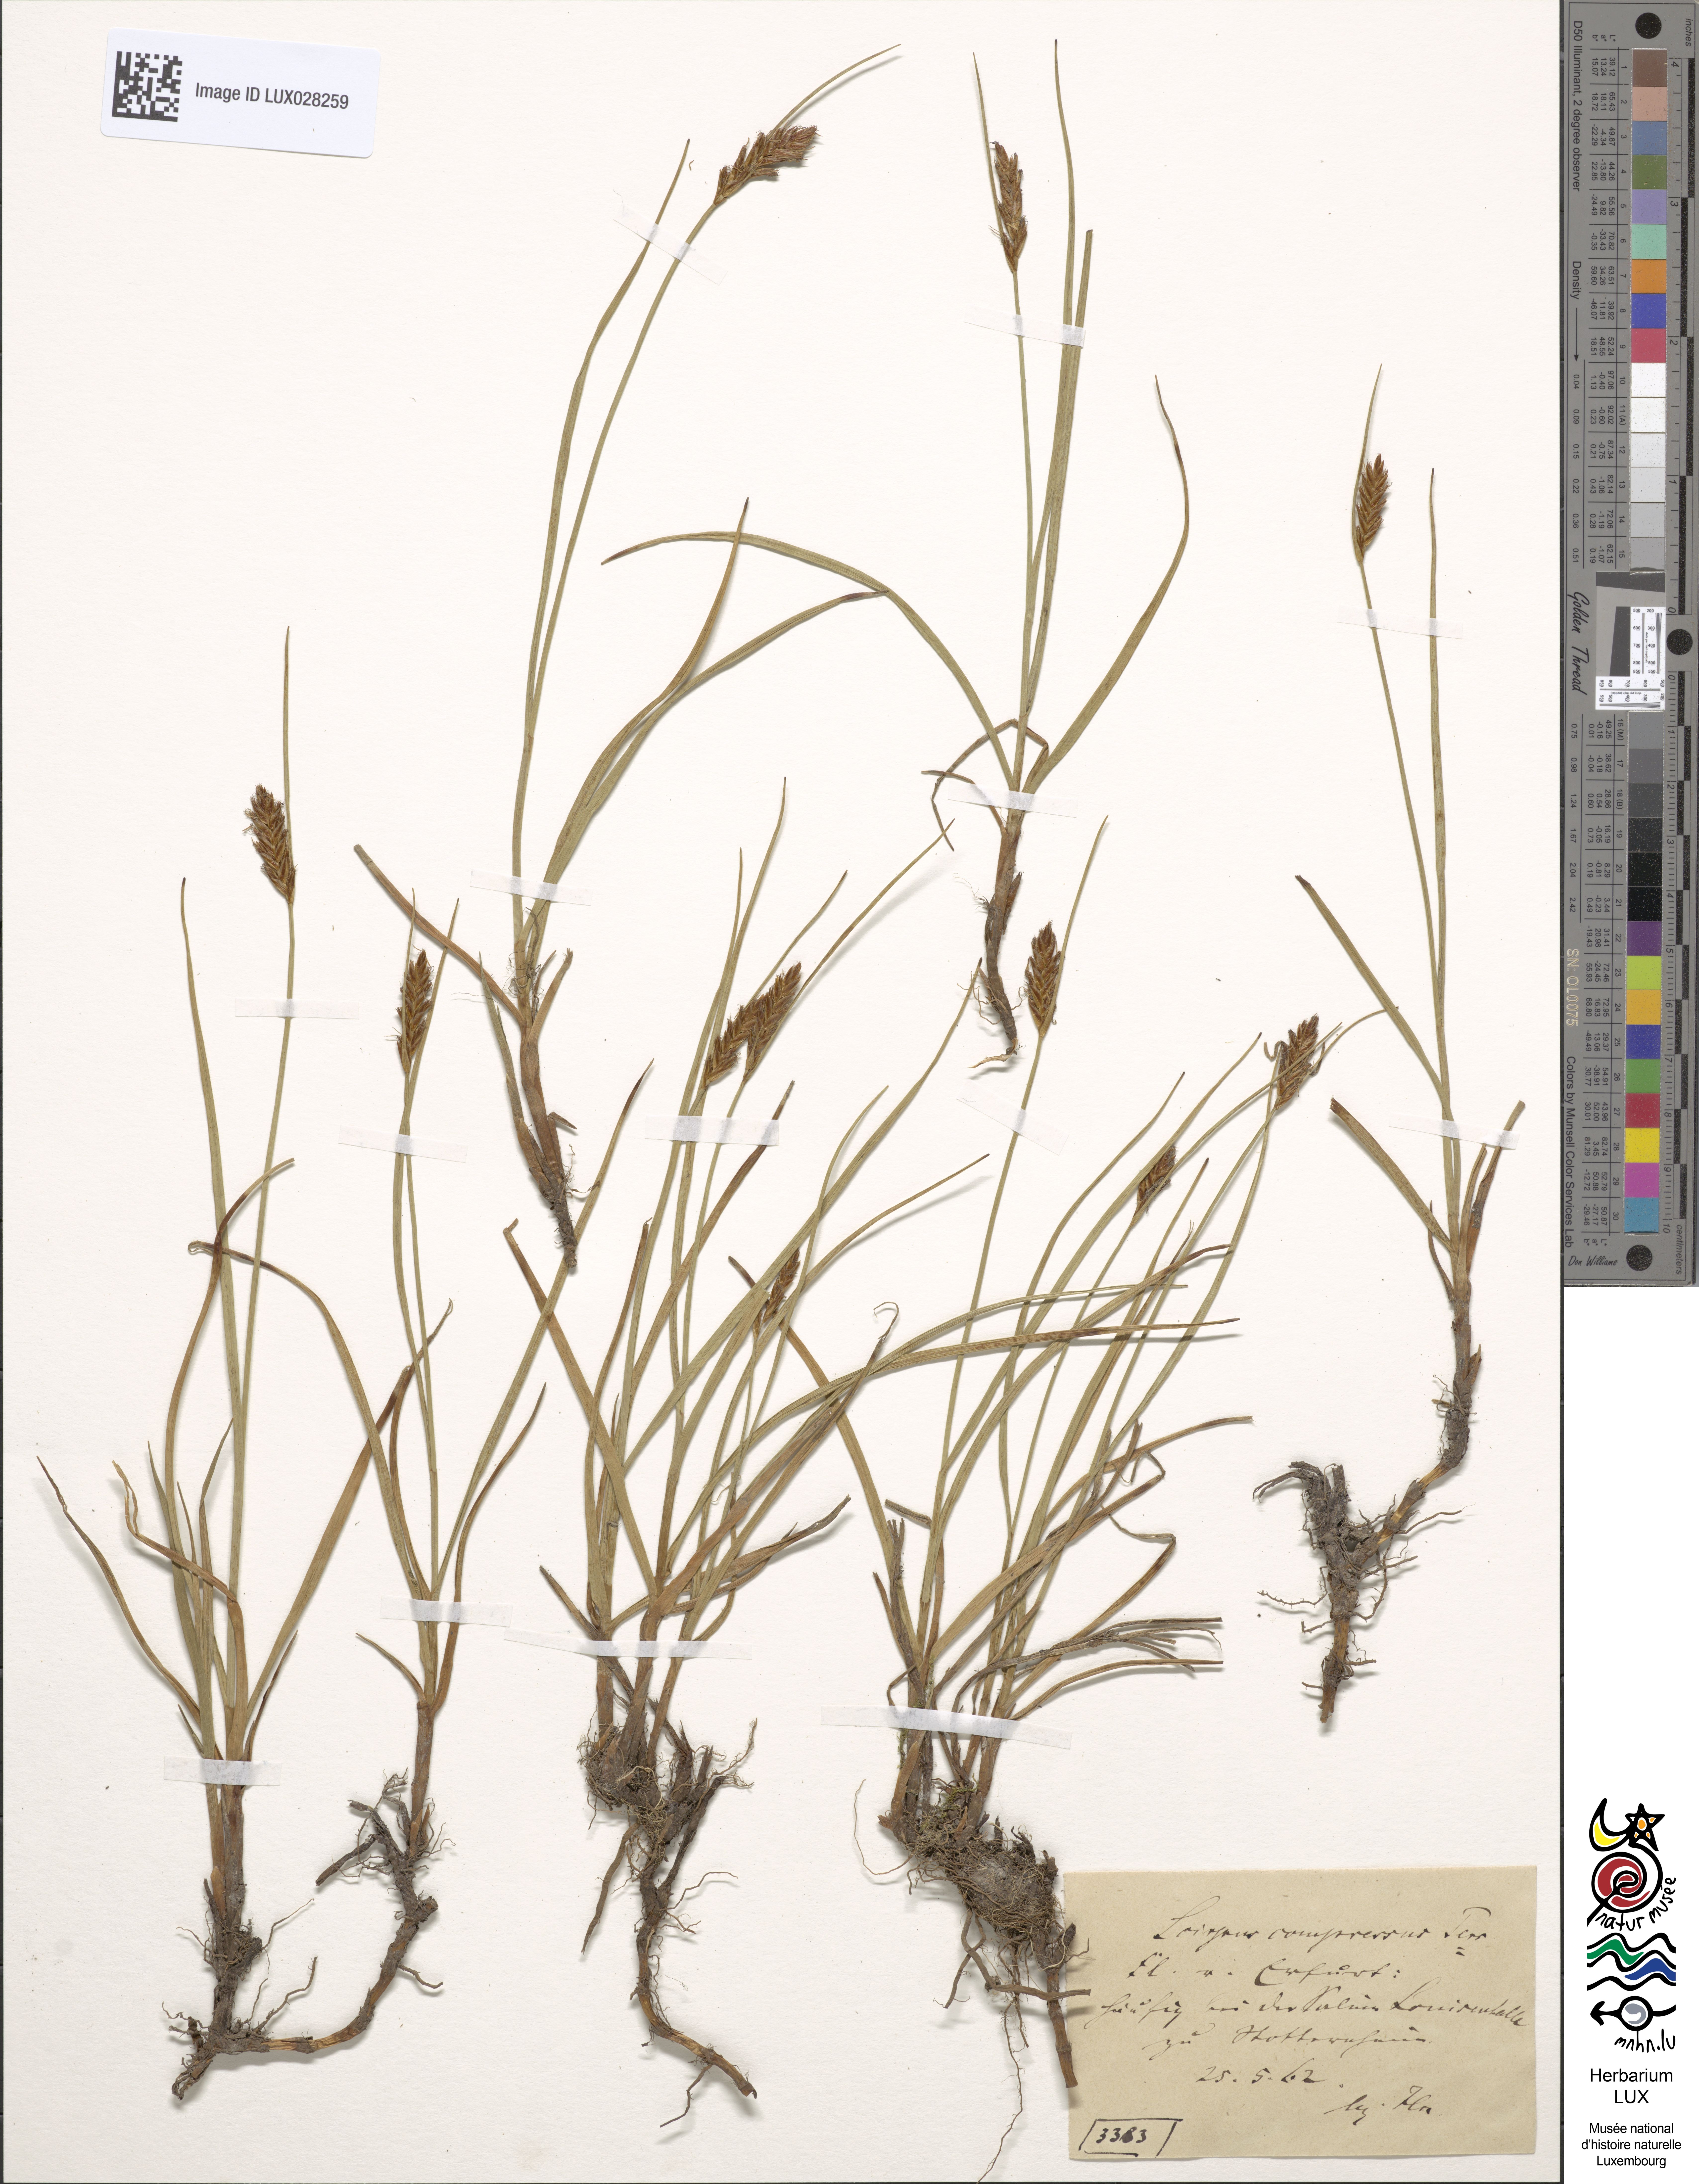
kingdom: Plantae
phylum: Tracheophyta
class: Liliopsida
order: Poales
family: Cyperaceae
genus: Blysmus
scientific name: Blysmus compressus
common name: Flat-sedge
